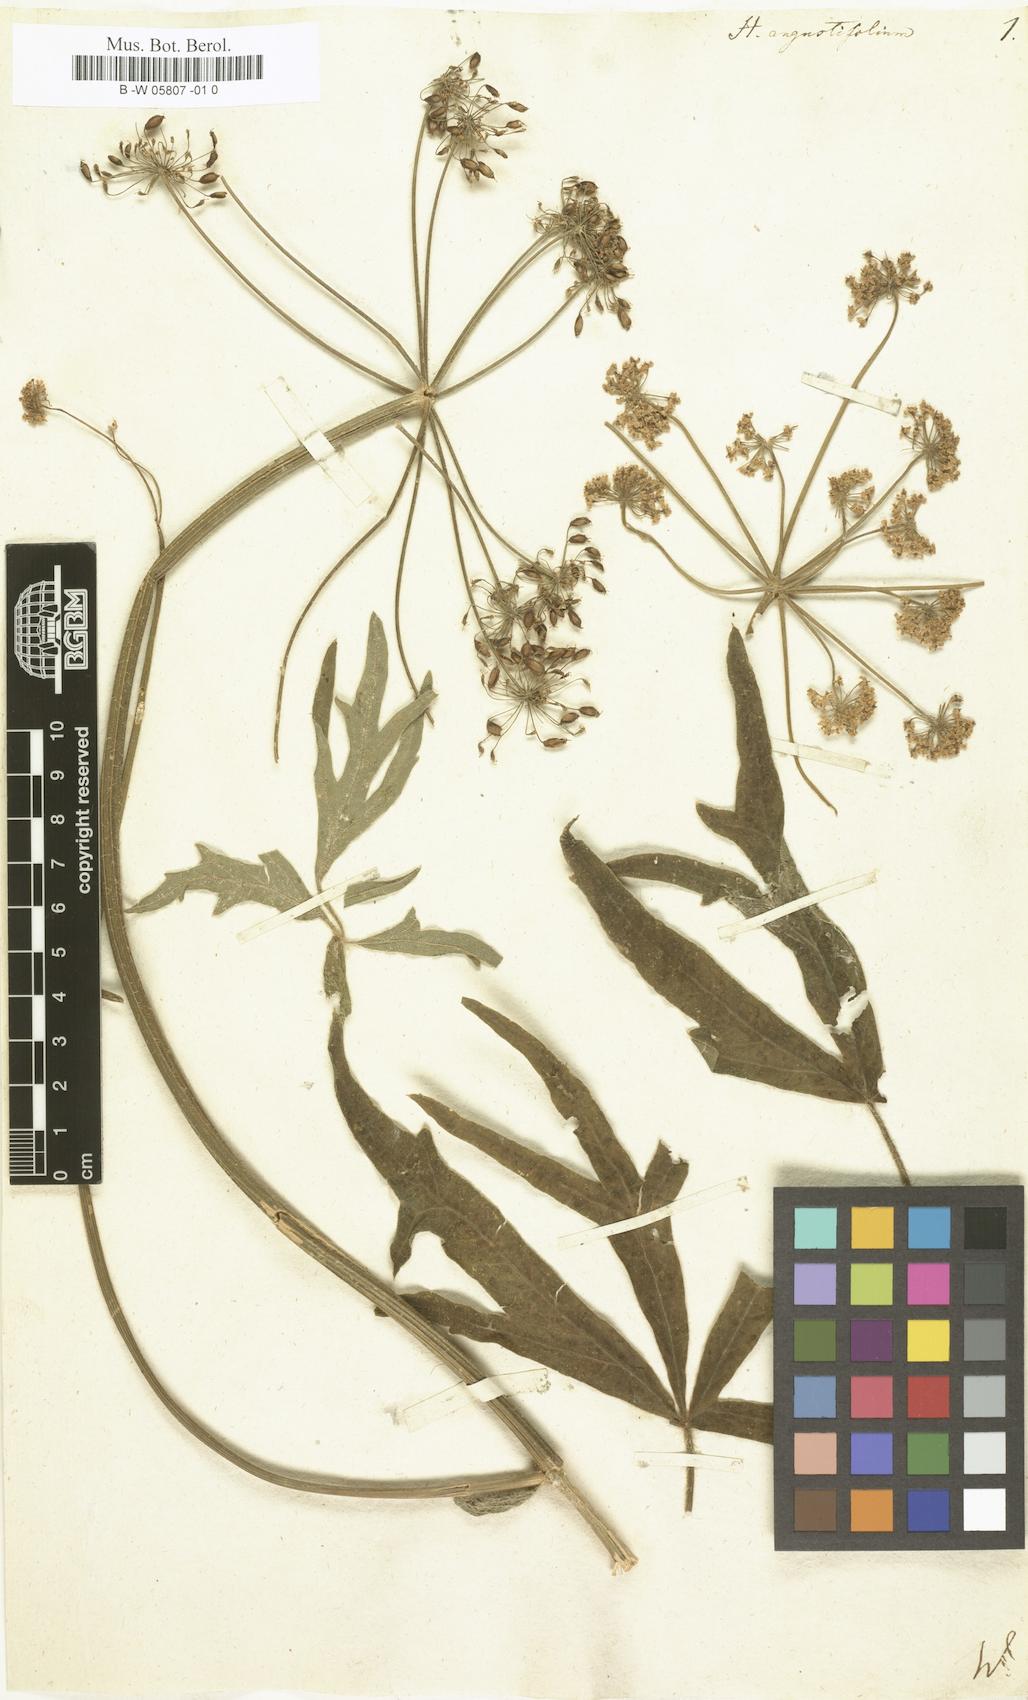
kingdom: Plantae
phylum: Tracheophyta
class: Magnoliopsida
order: Apiales
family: Apiaceae
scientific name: Apiaceae
